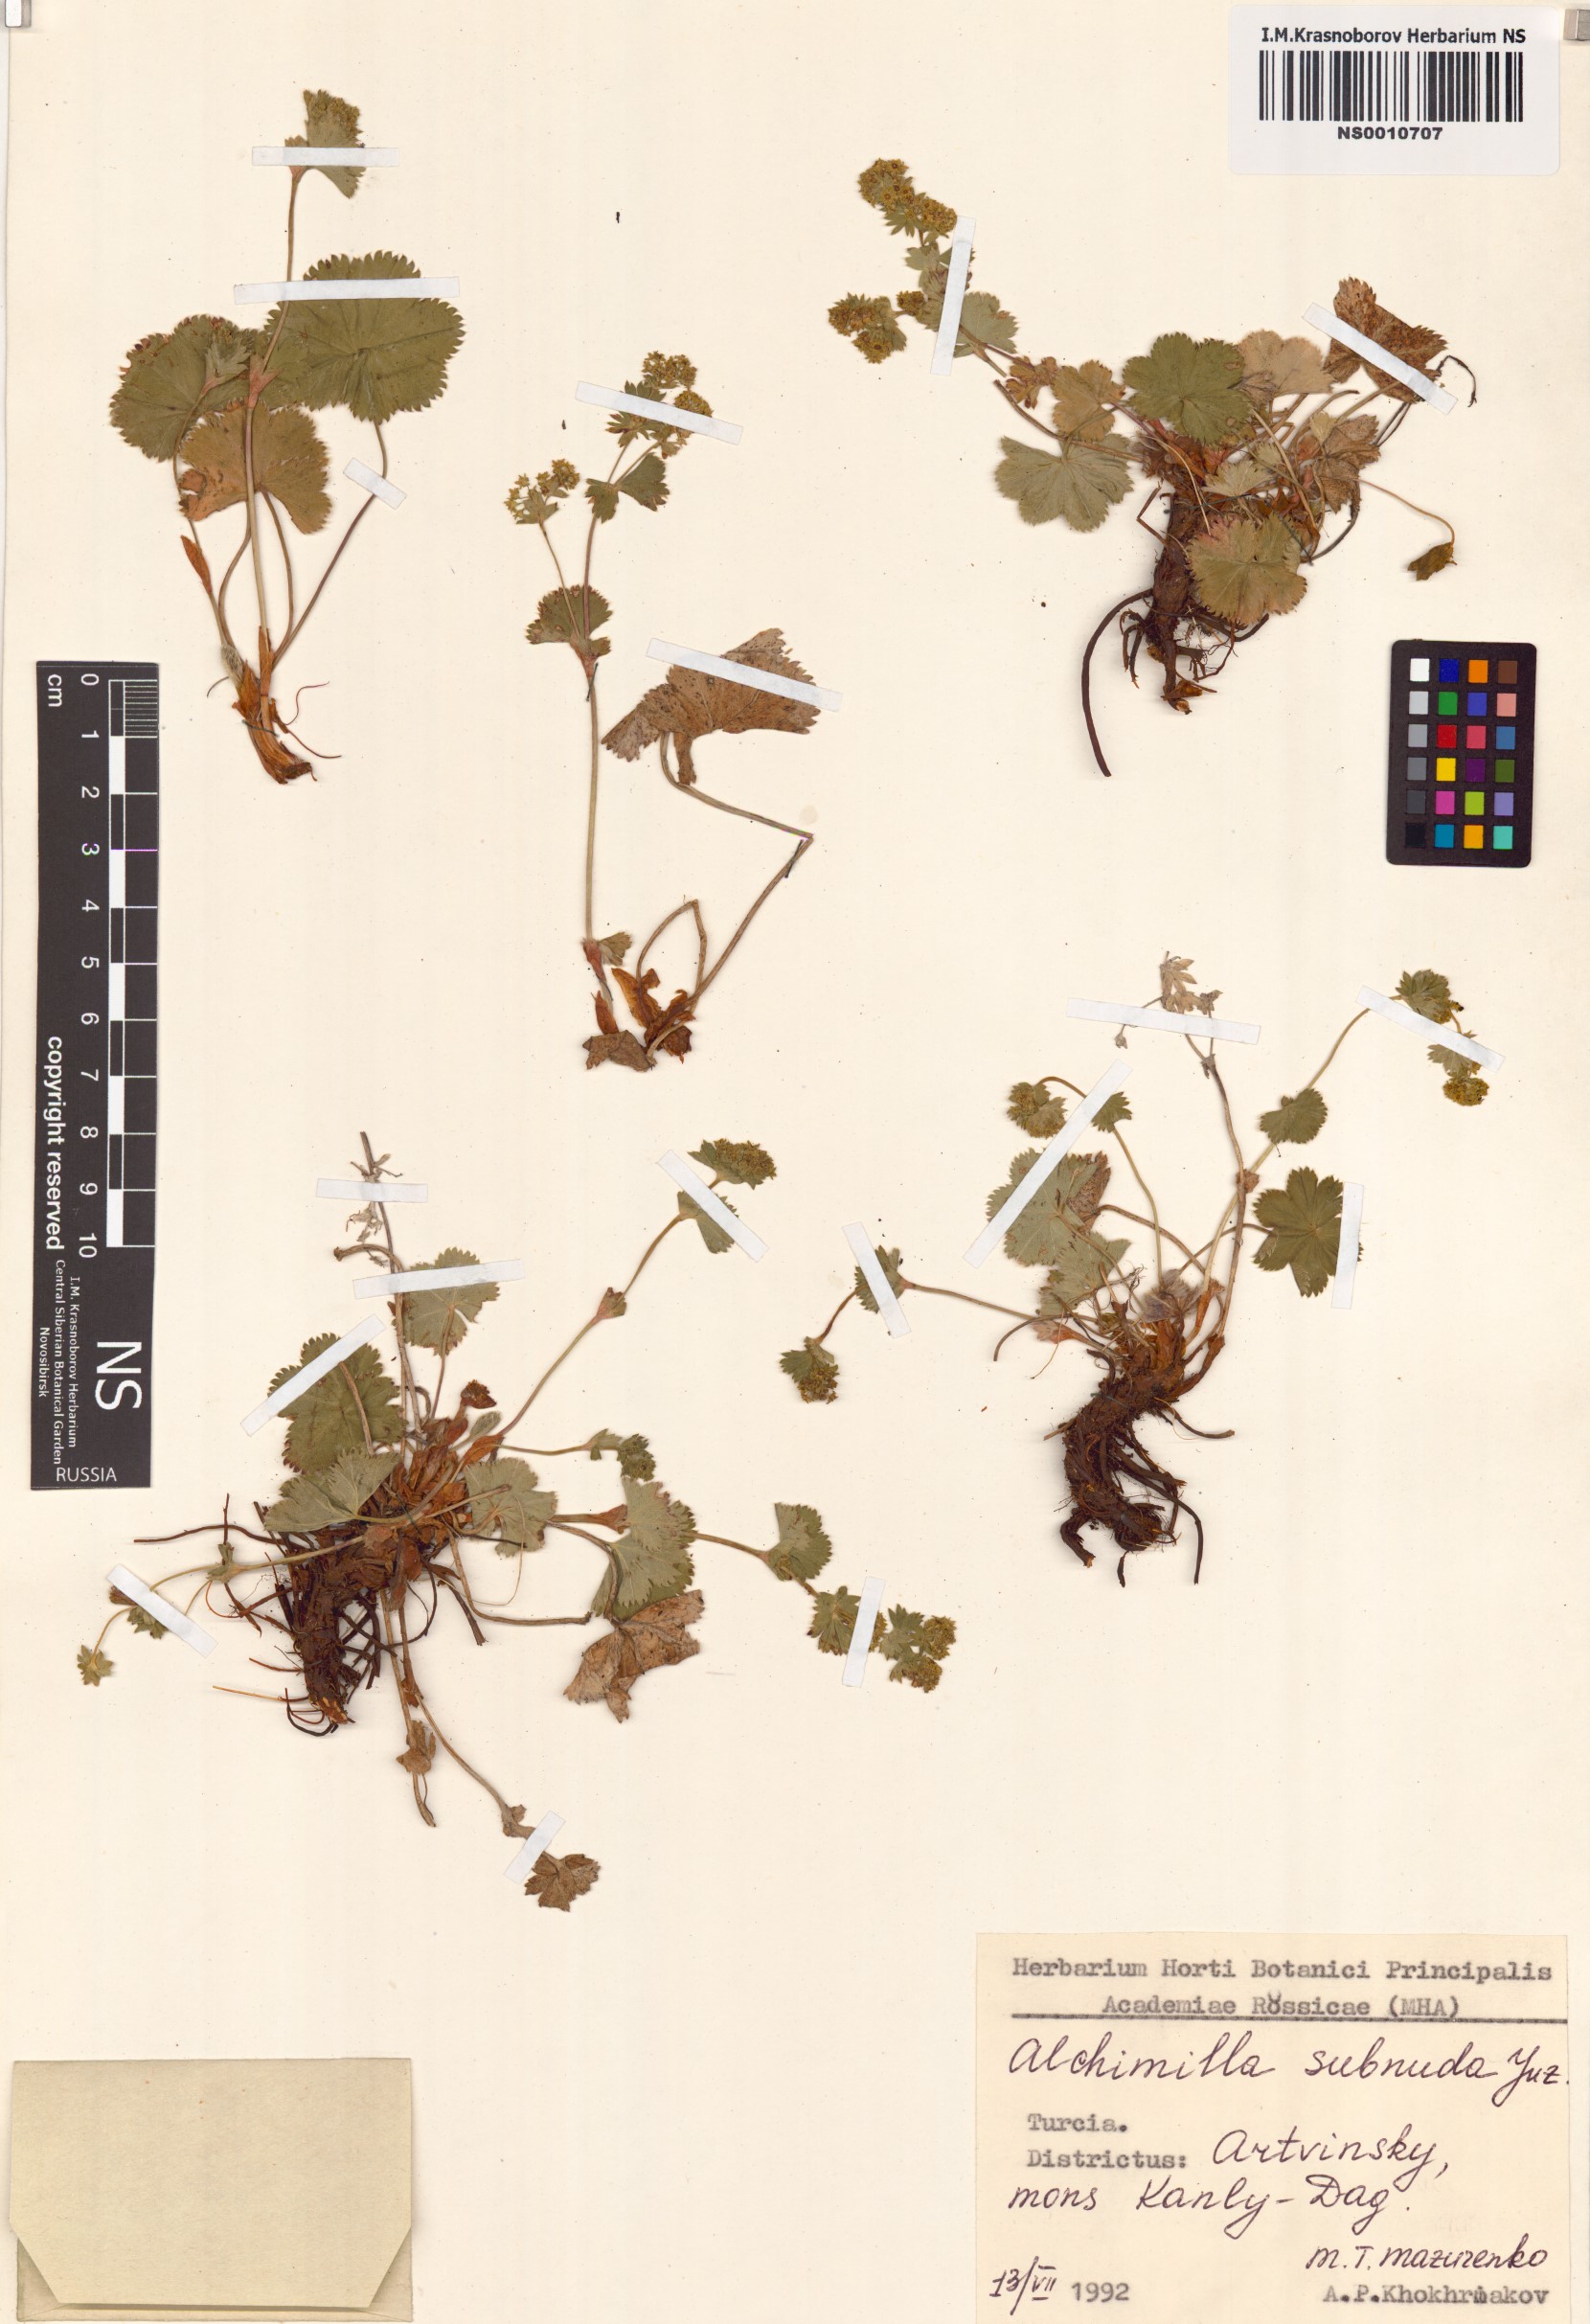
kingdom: Plantae
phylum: Tracheophyta
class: Magnoliopsida
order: Rosales
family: Rosaceae
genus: Alchemilla
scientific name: Alchemilla subnuda
